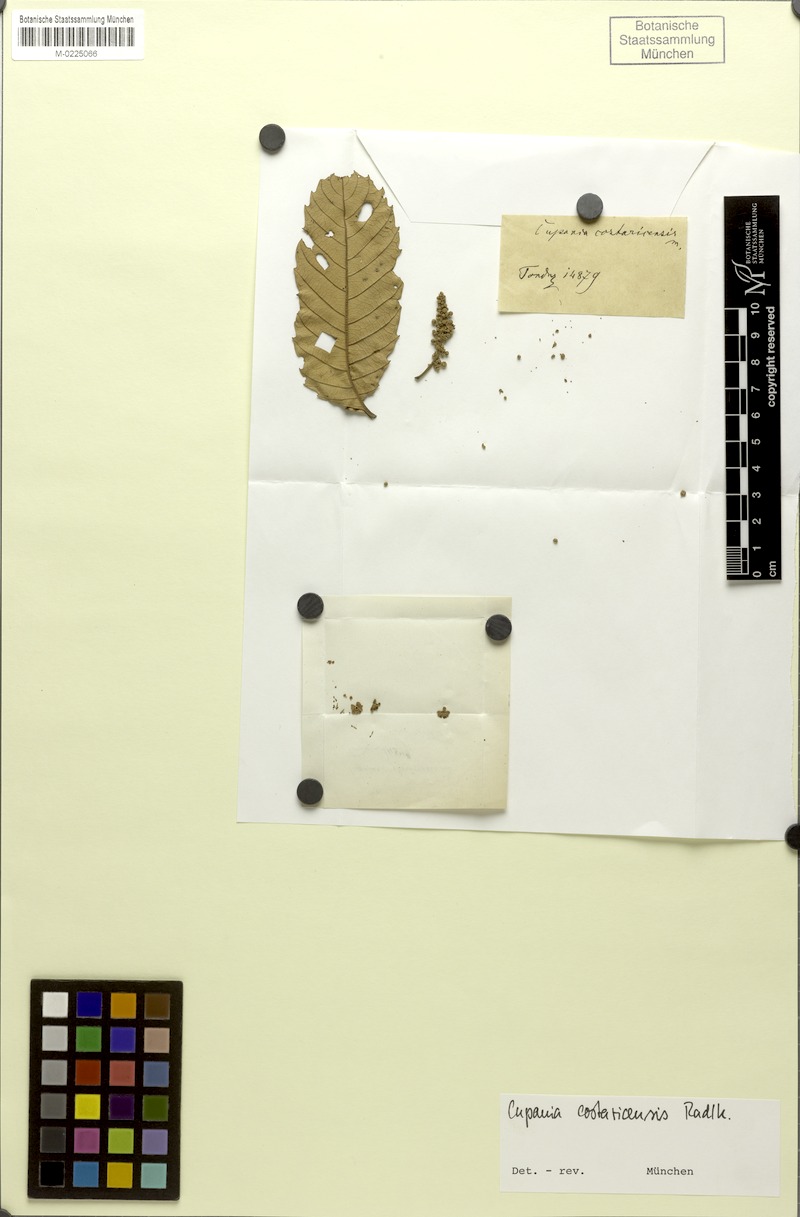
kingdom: Plantae
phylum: Tracheophyta
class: Magnoliopsida
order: Sapindales
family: Sapindaceae
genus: Cupania
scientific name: Cupania cinerea
